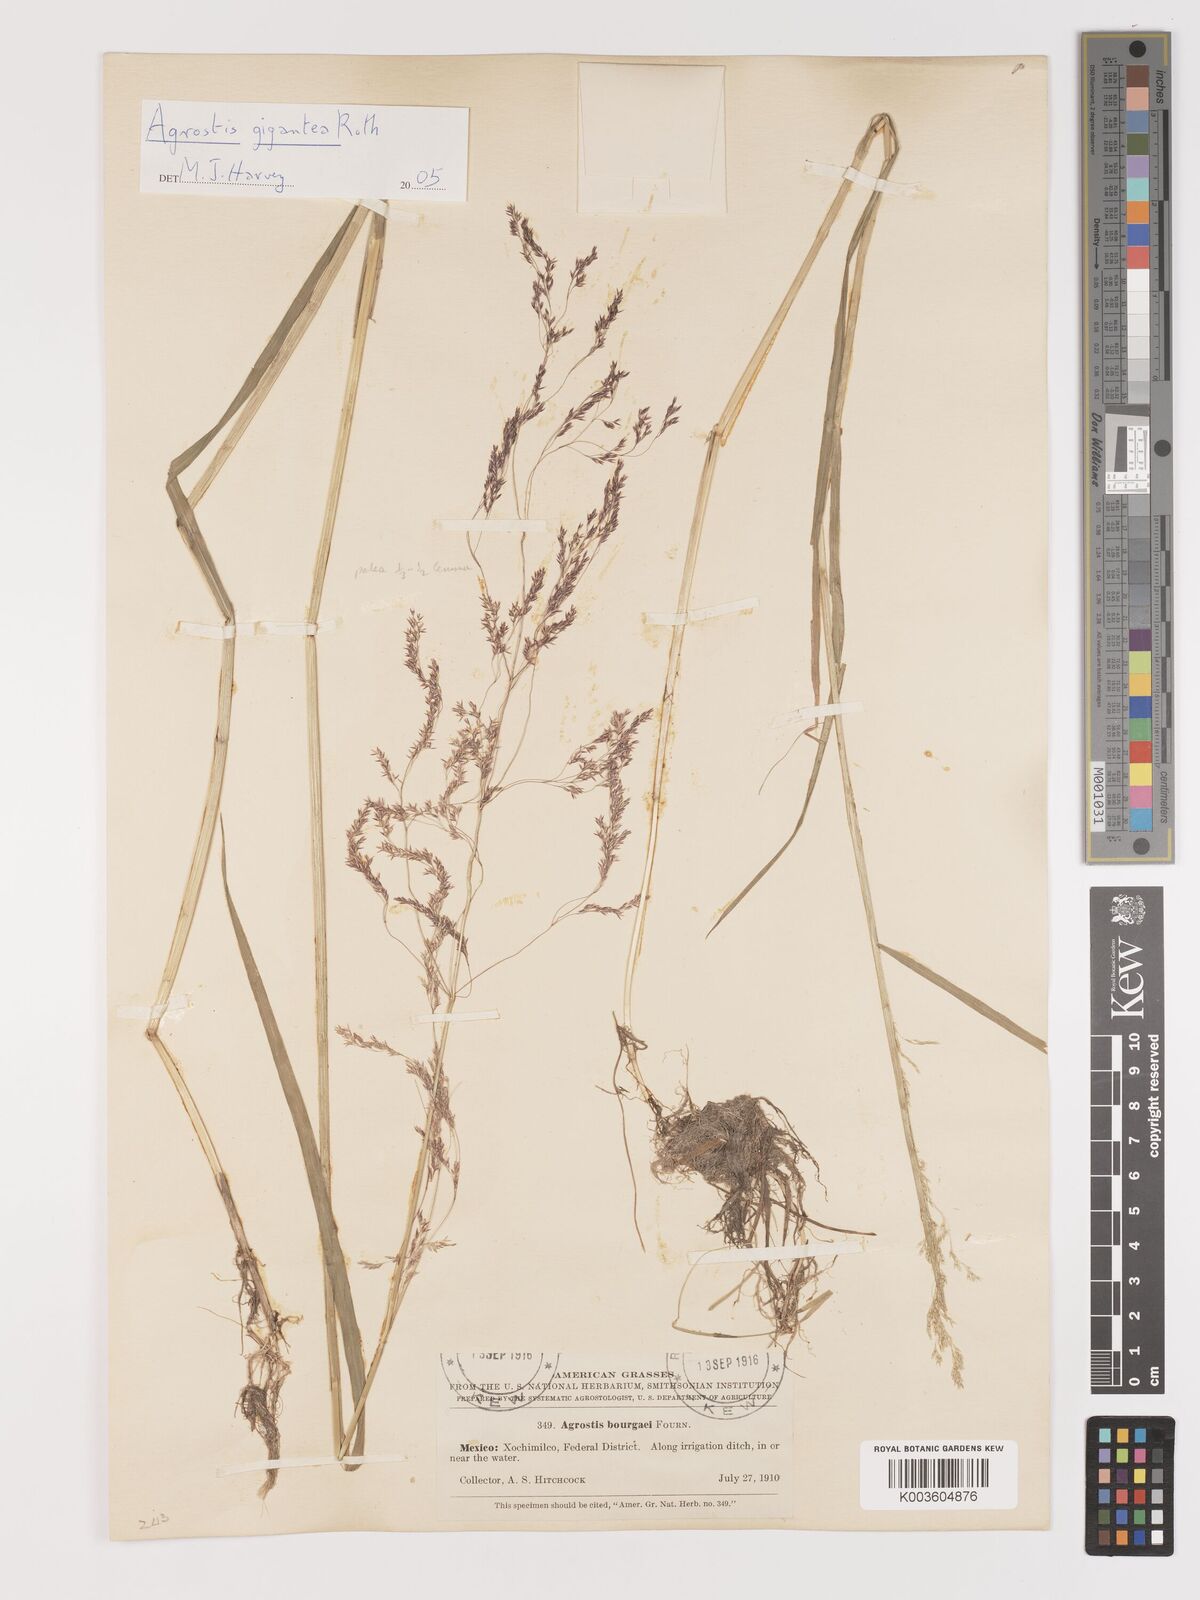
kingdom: Plantae
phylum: Tracheophyta
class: Liliopsida
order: Poales
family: Poaceae
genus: Agrostis
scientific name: Agrostis gigantea
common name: Black bent
